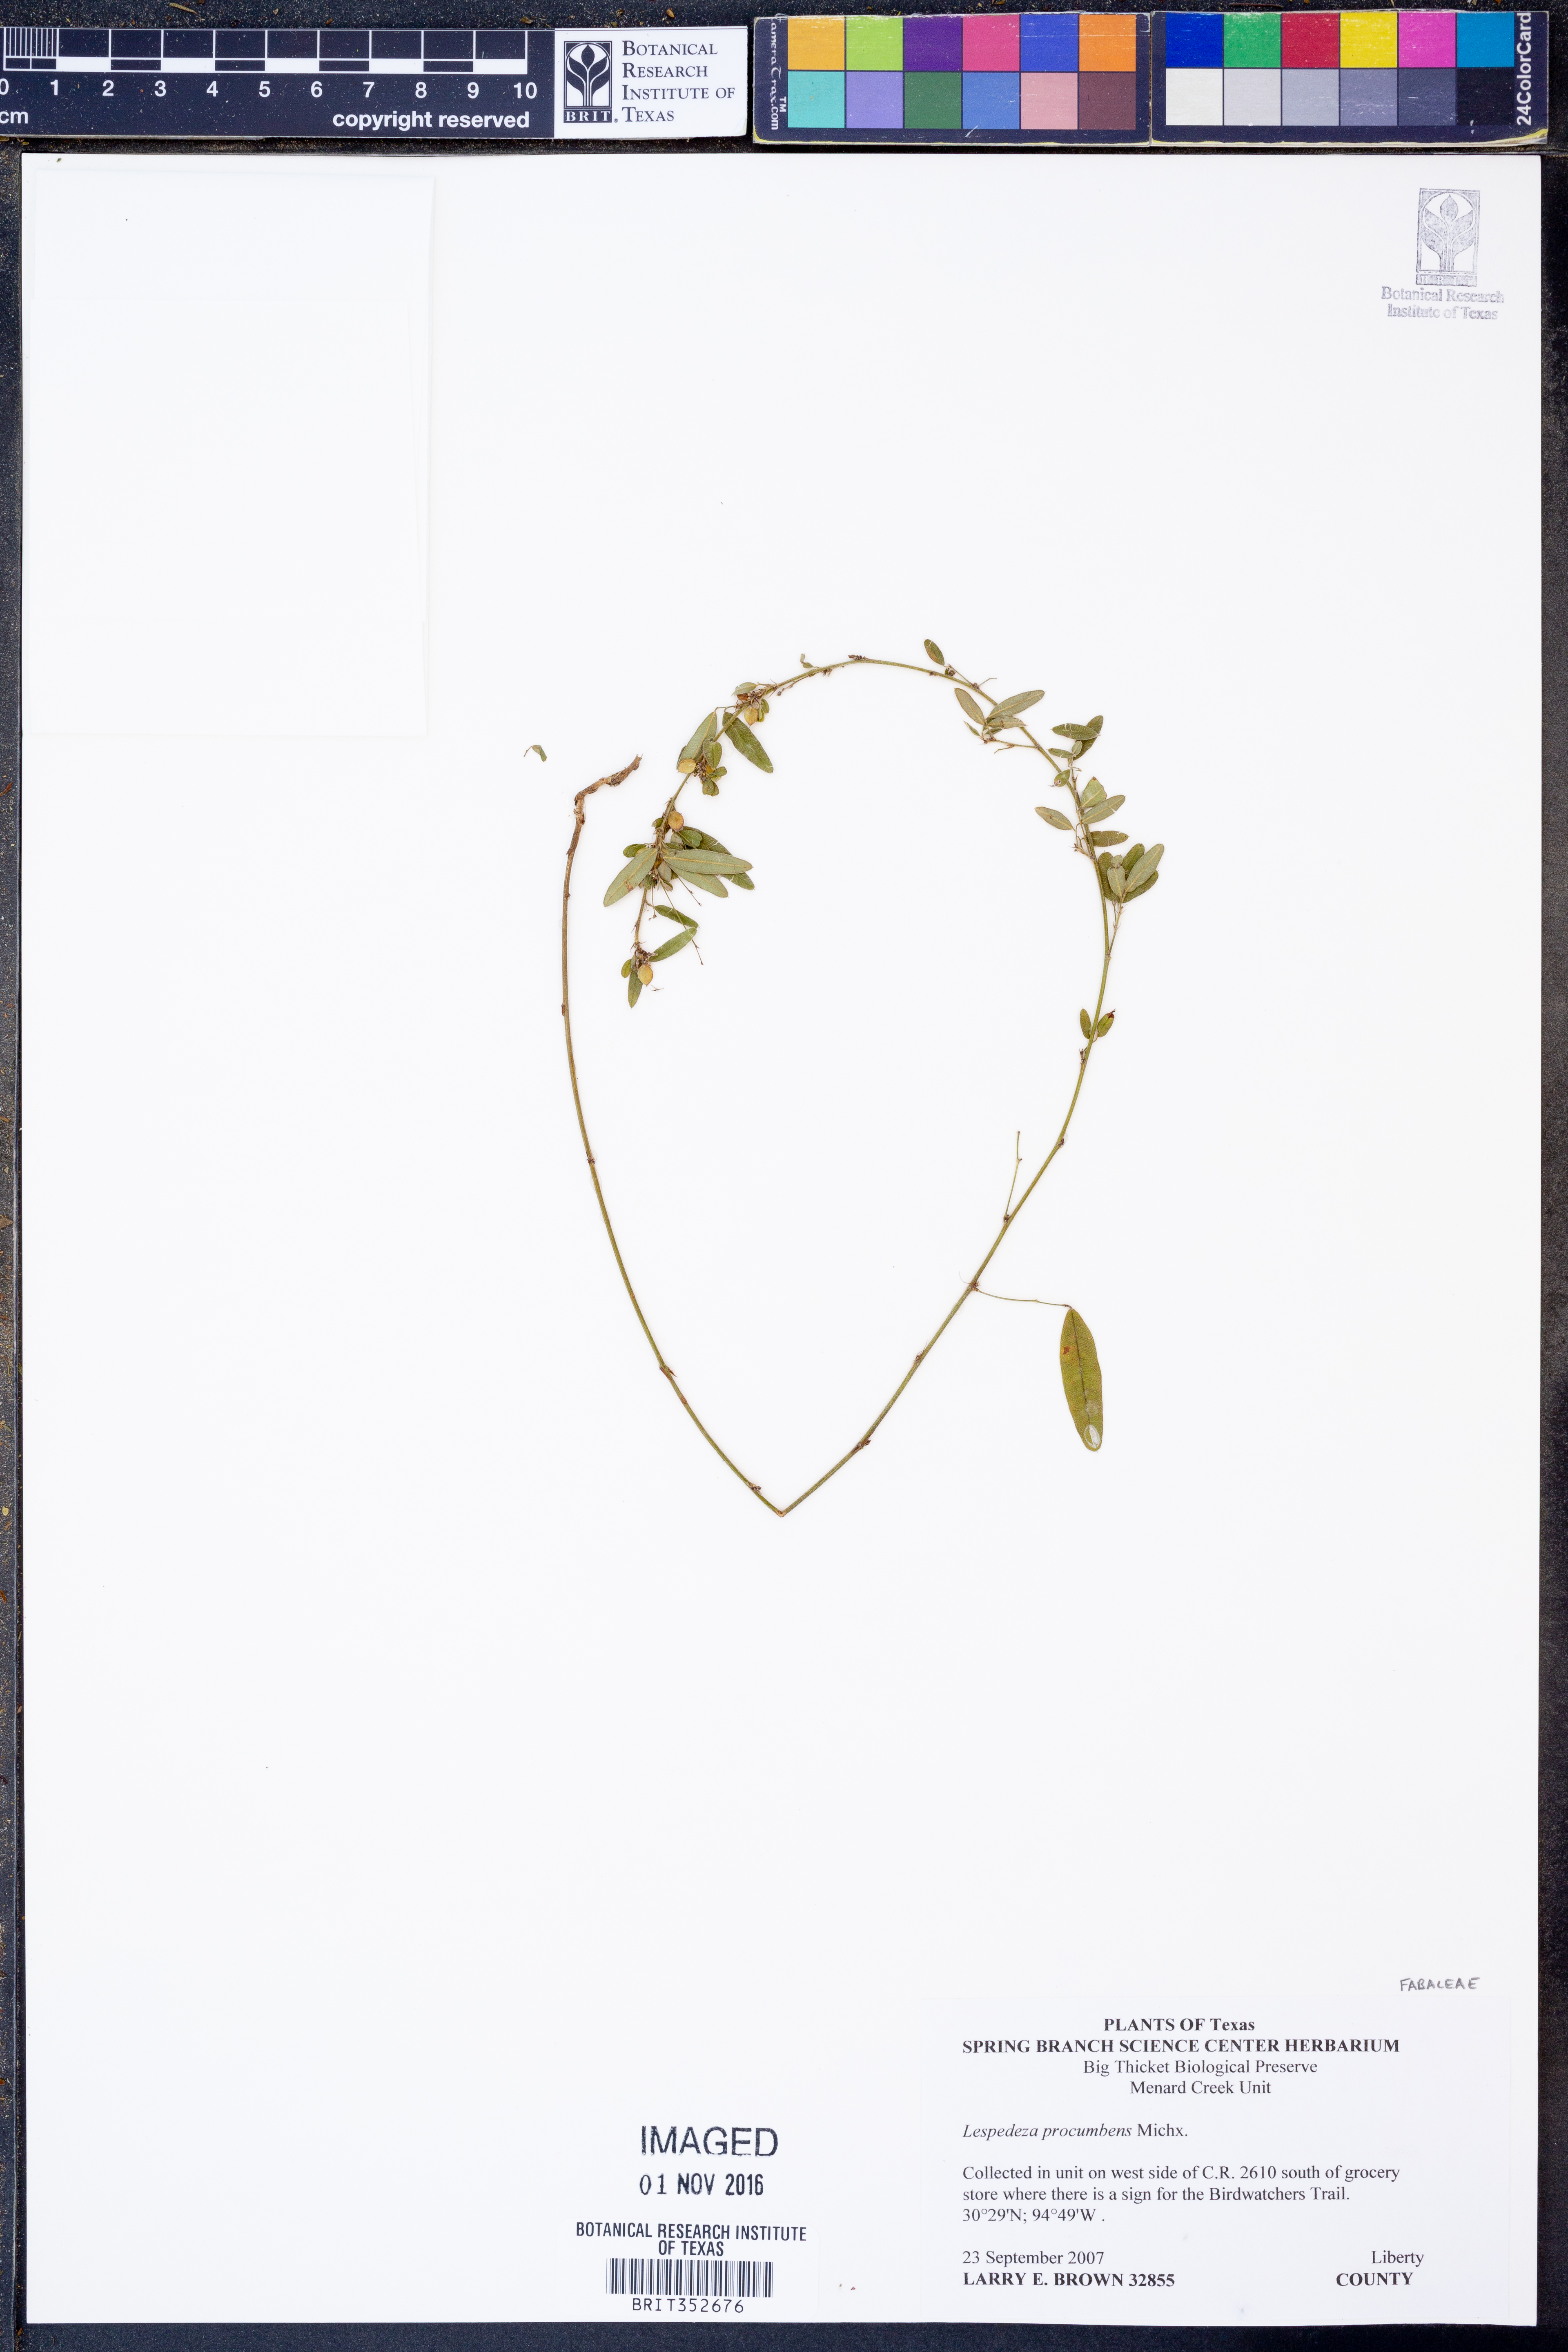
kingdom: Plantae
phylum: Tracheophyta
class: Magnoliopsida
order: Fabales
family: Fabaceae
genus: Lespedeza
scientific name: Lespedeza procumbens
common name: Downy trailing bush-clover
